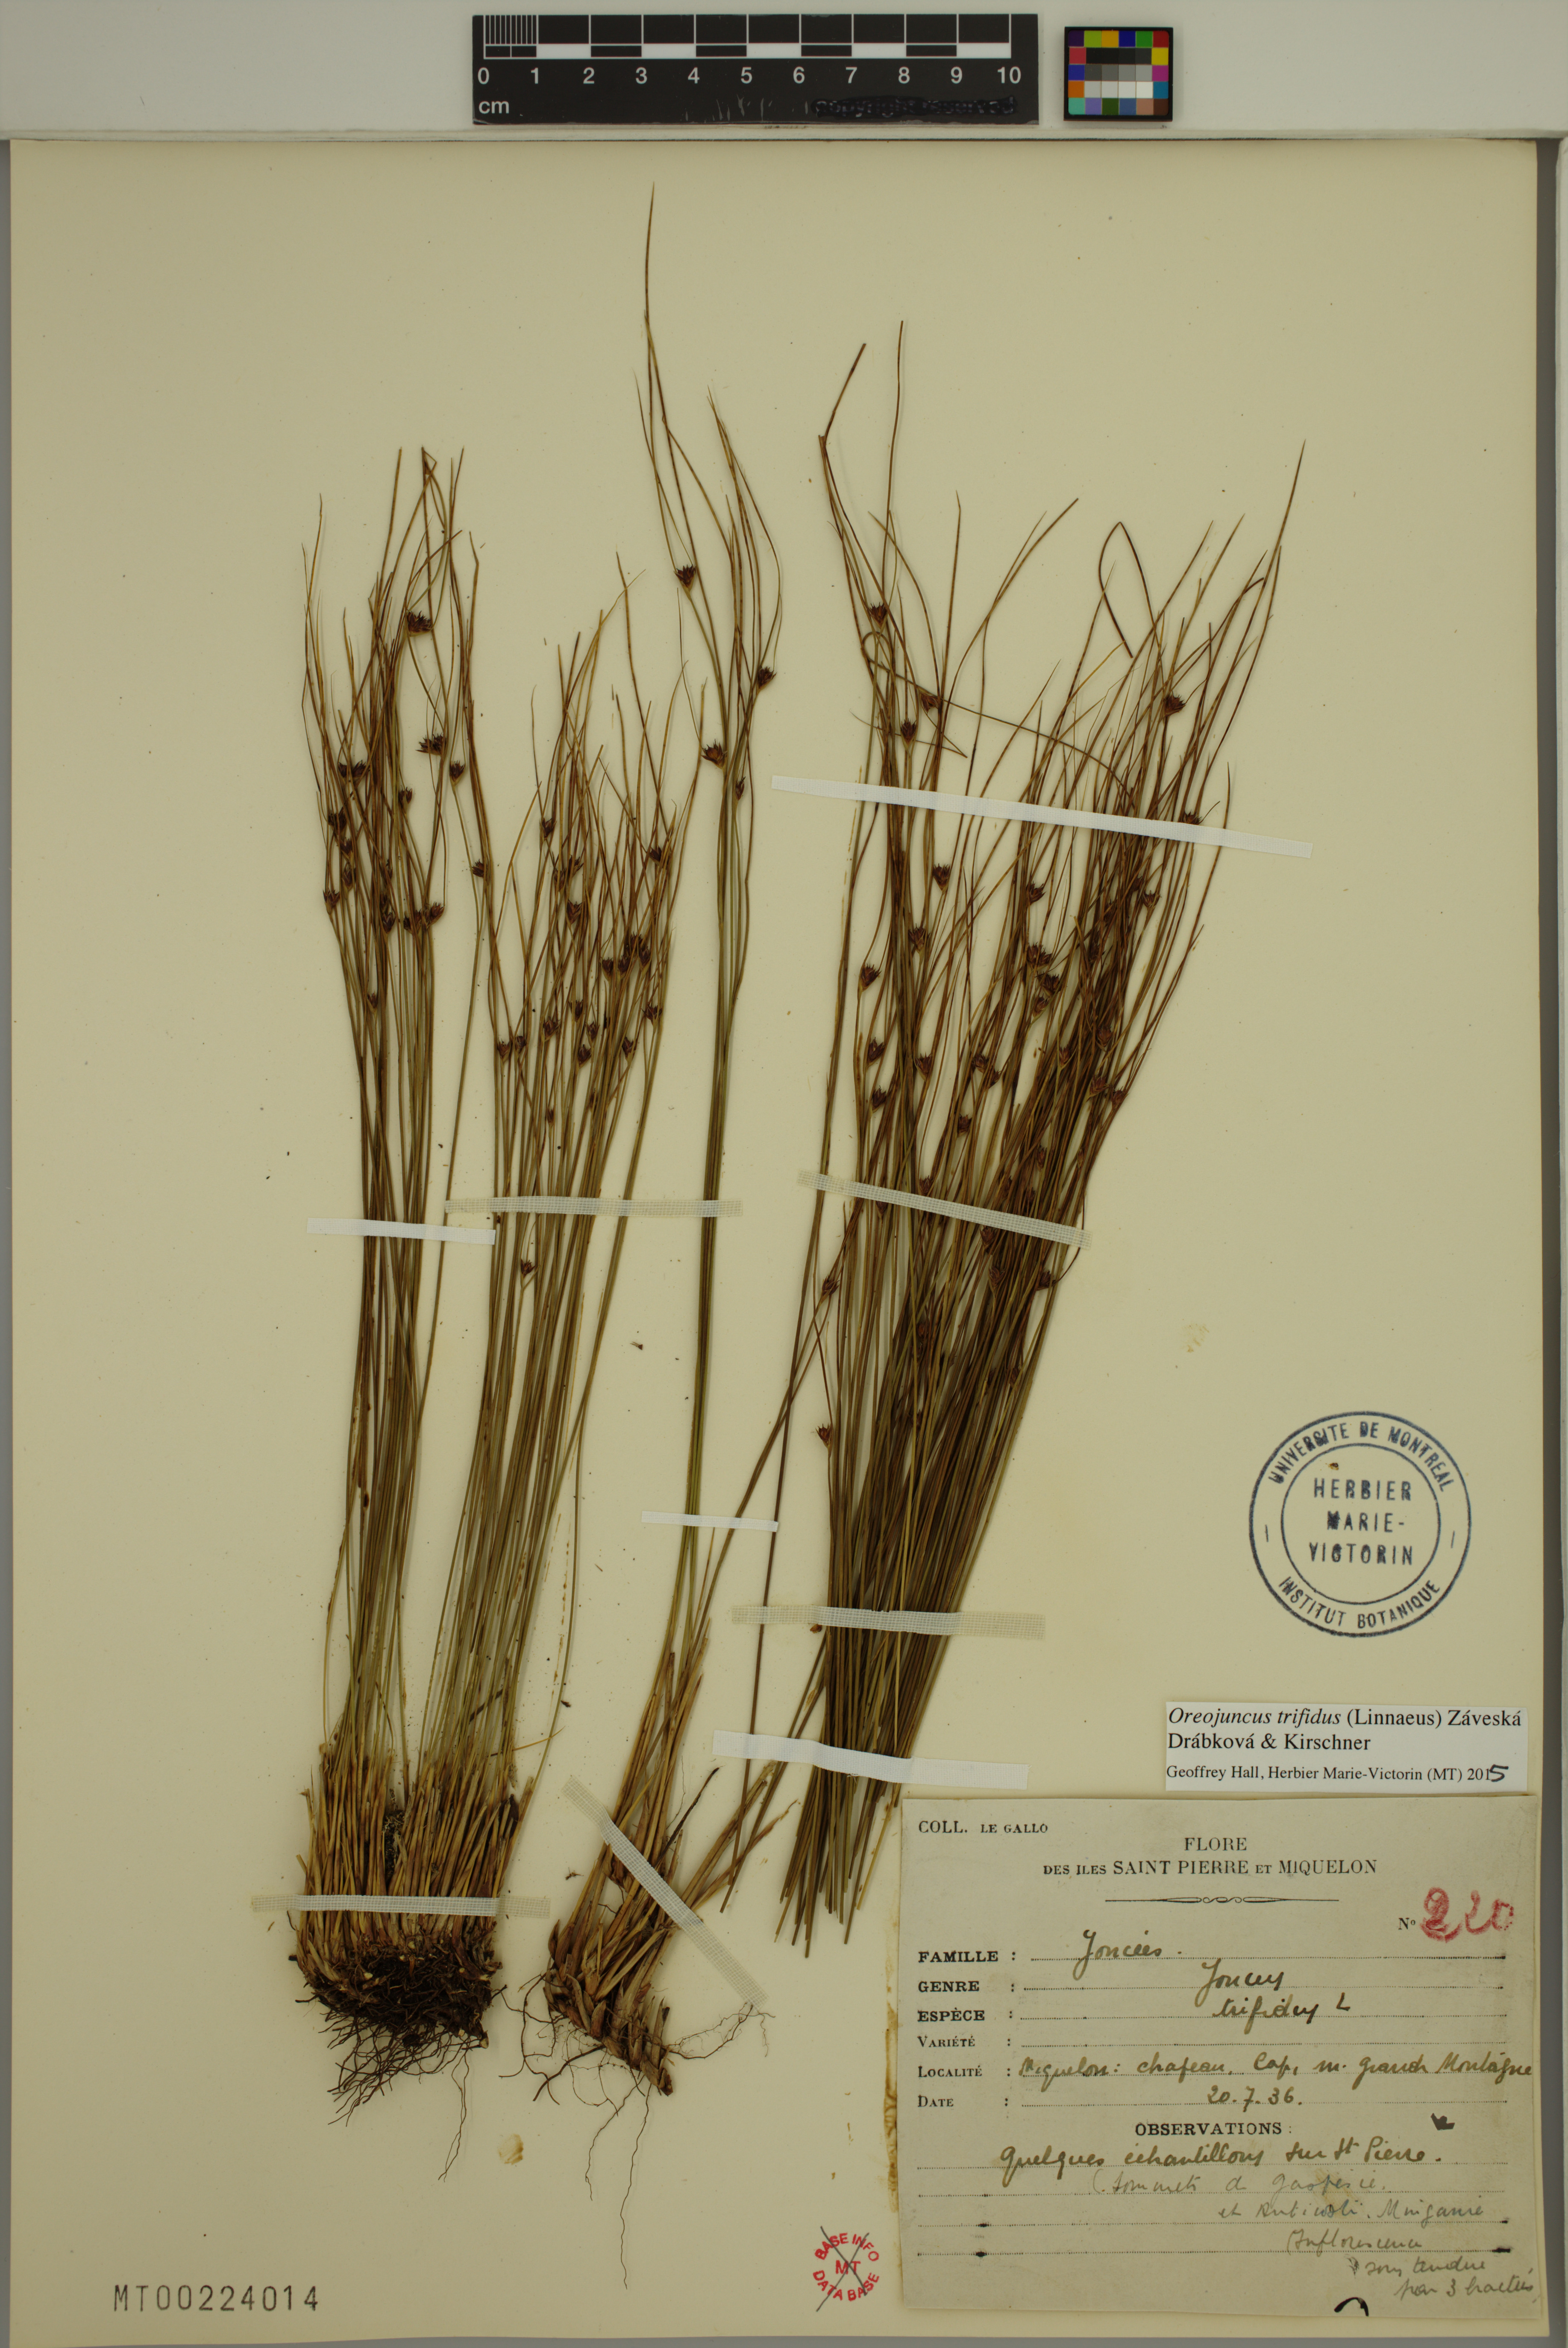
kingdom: Plantae
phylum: Tracheophyta
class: Liliopsida
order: Poales
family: Juncaceae
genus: Oreojuncus
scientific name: Oreojuncus trifidus
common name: Highland rush
